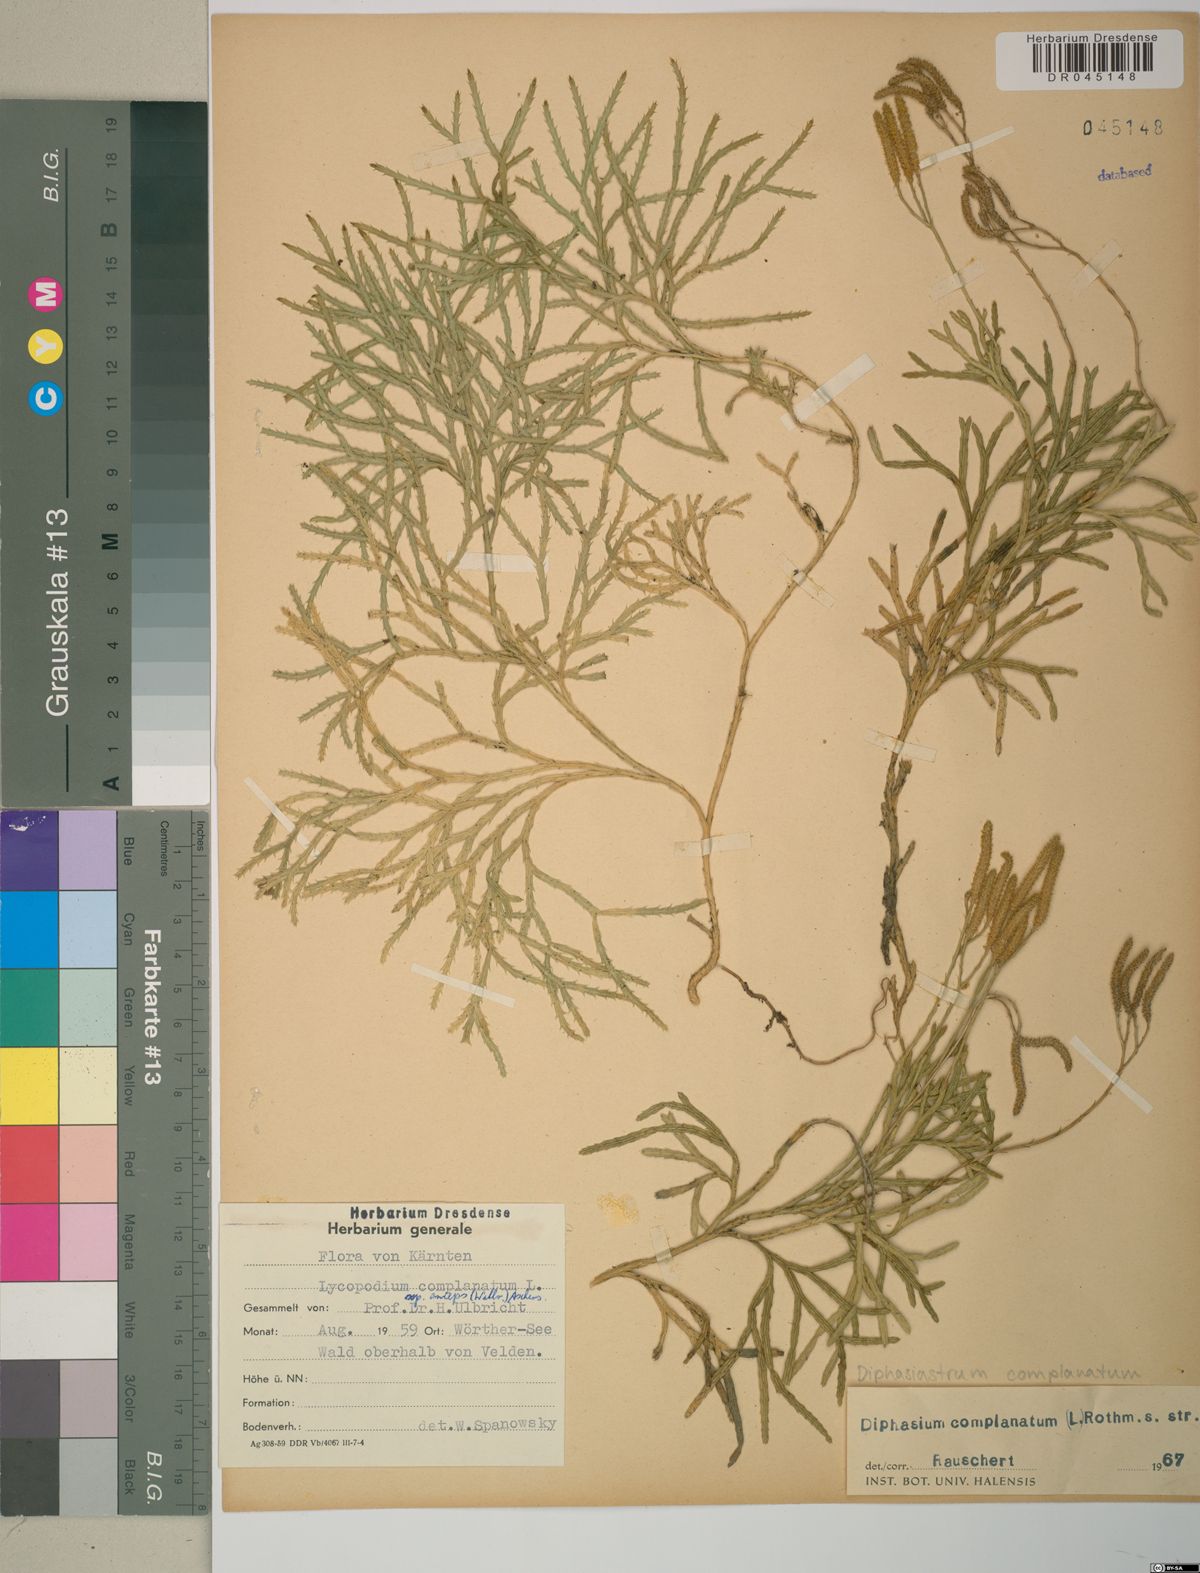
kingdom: Plantae
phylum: Tracheophyta
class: Lycopodiopsida
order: Lycopodiales
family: Lycopodiaceae
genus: Diphasiastrum
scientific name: Diphasiastrum complanatum
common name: Northern running-pine
